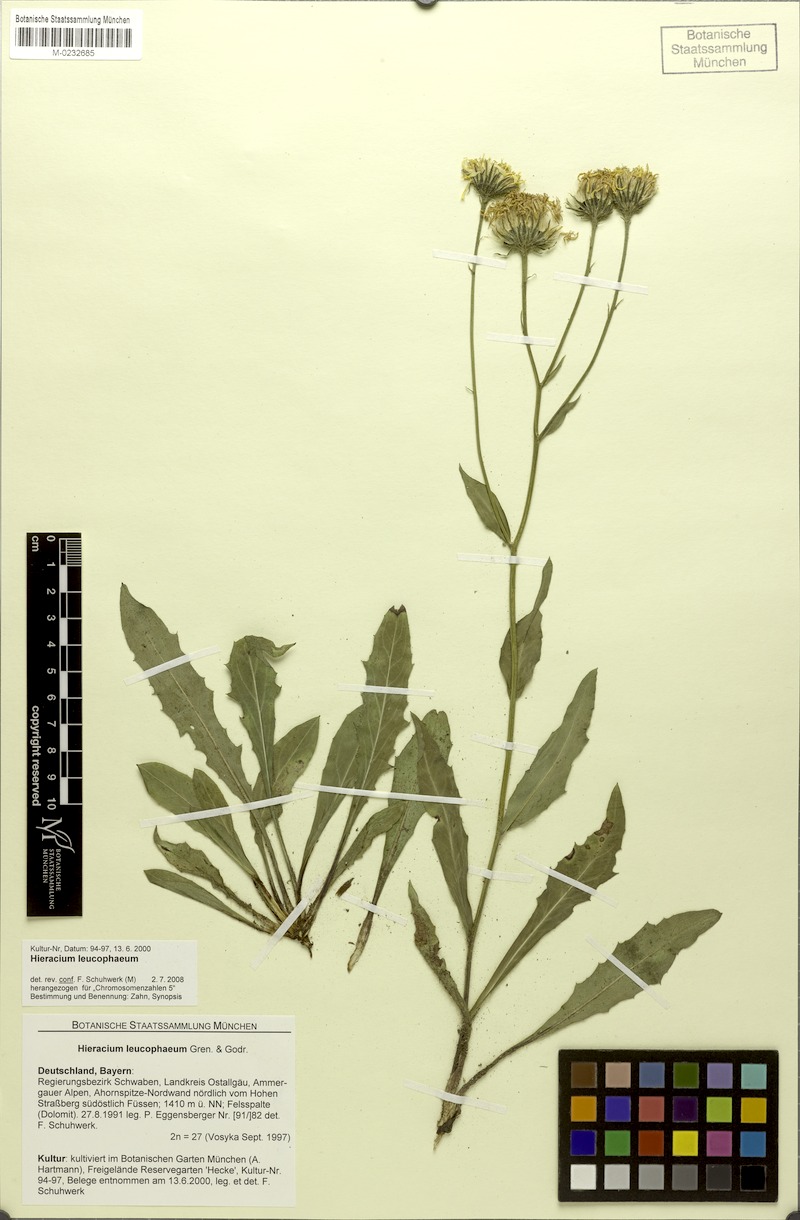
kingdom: Plantae
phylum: Tracheophyta
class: Magnoliopsida
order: Asterales
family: Asteraceae
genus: Hieracium
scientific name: Hieracium leucophaeum
